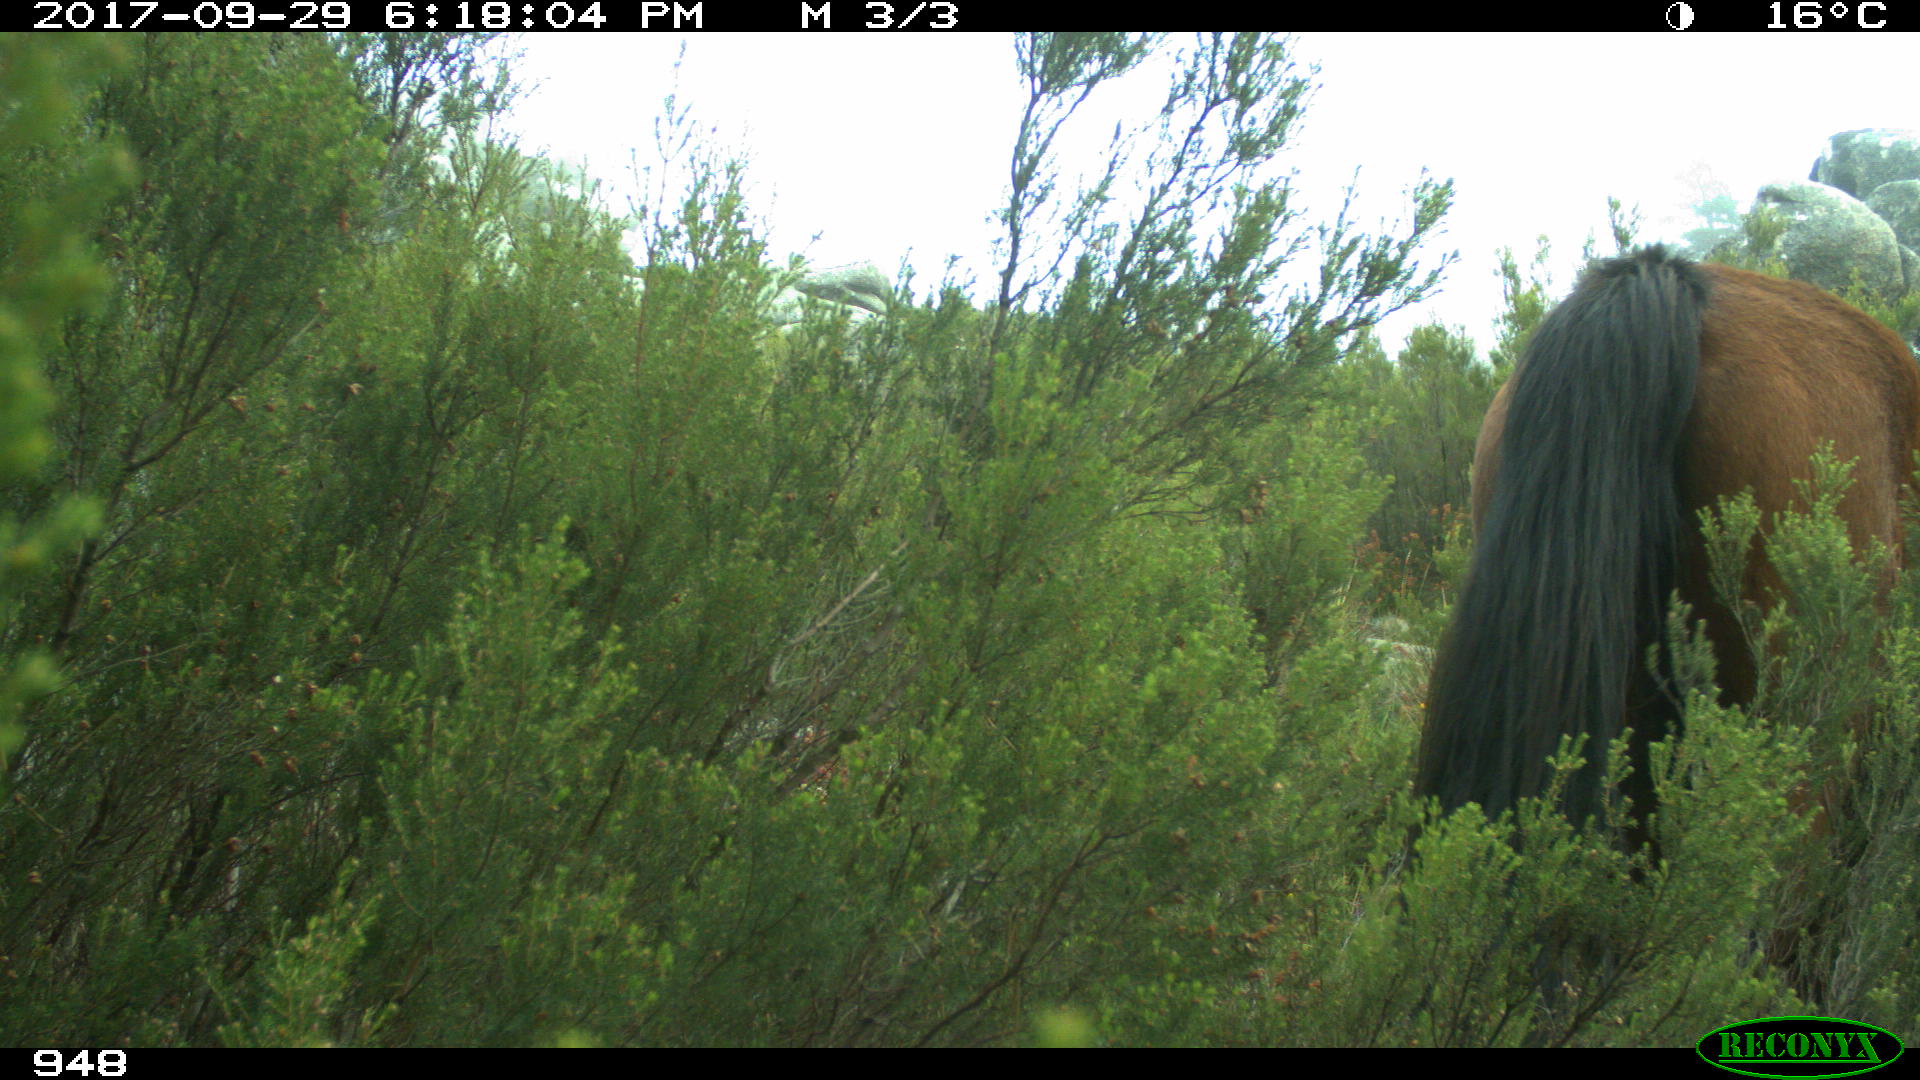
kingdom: Animalia
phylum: Chordata
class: Mammalia
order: Perissodactyla
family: Equidae
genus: Equus
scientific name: Equus caballus
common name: Horse
